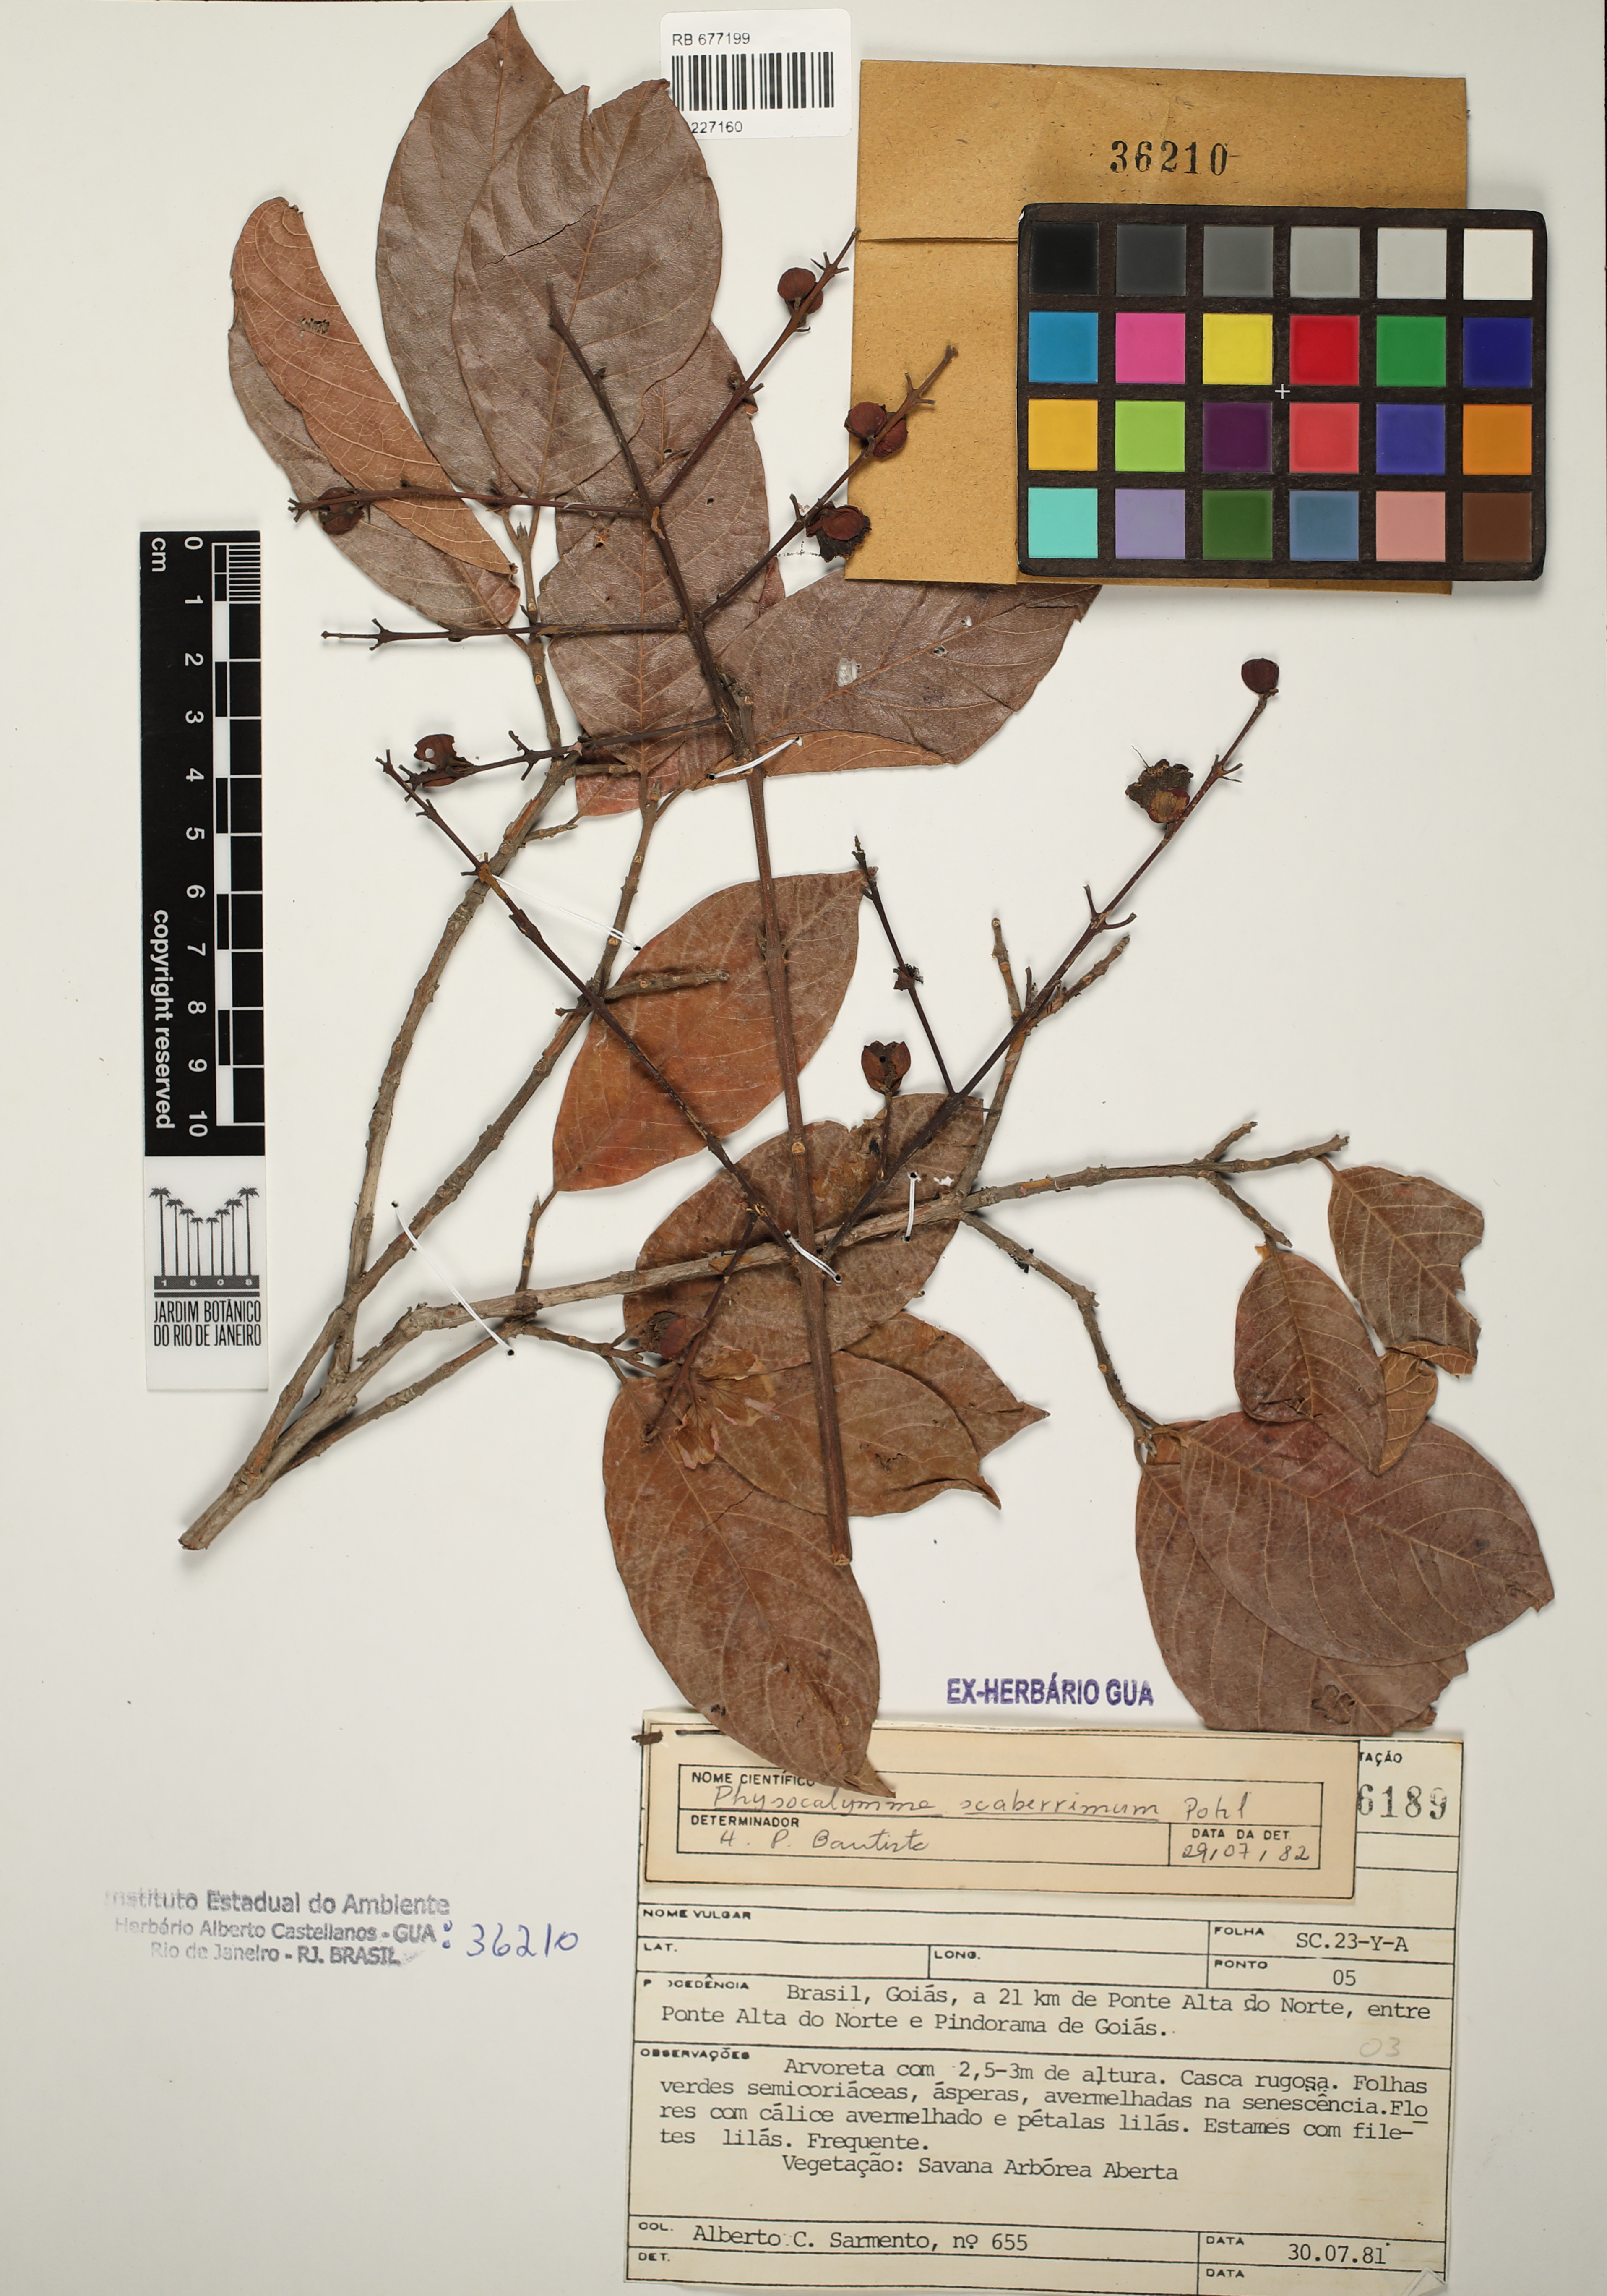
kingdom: Plantae
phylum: Tracheophyta
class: Magnoliopsida
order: Sapindales
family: Anacardiaceae
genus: Anacardium
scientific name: Anacardium
